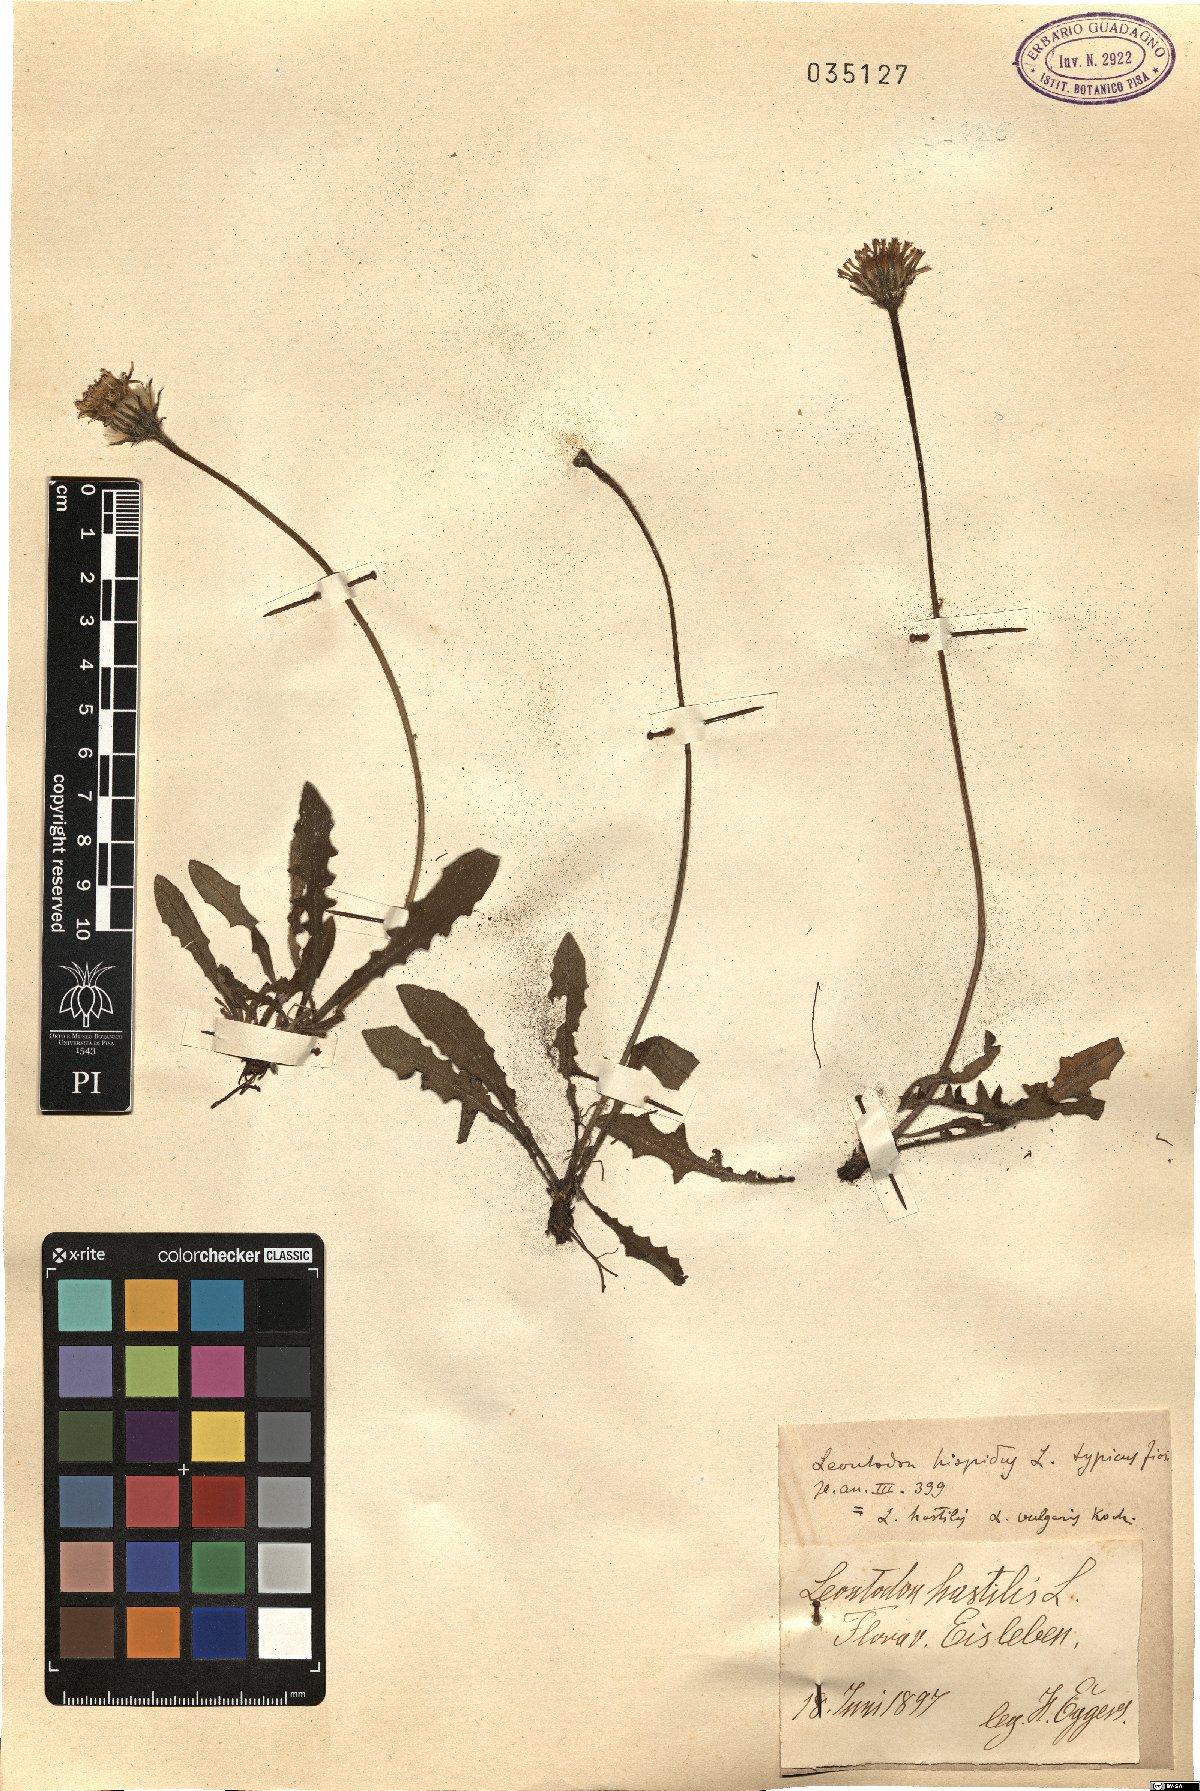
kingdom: Plantae
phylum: Tracheophyta
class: Magnoliopsida
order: Asterales
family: Asteraceae
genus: Leontodon
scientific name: Leontodon hispidus
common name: Rough hawkbit
